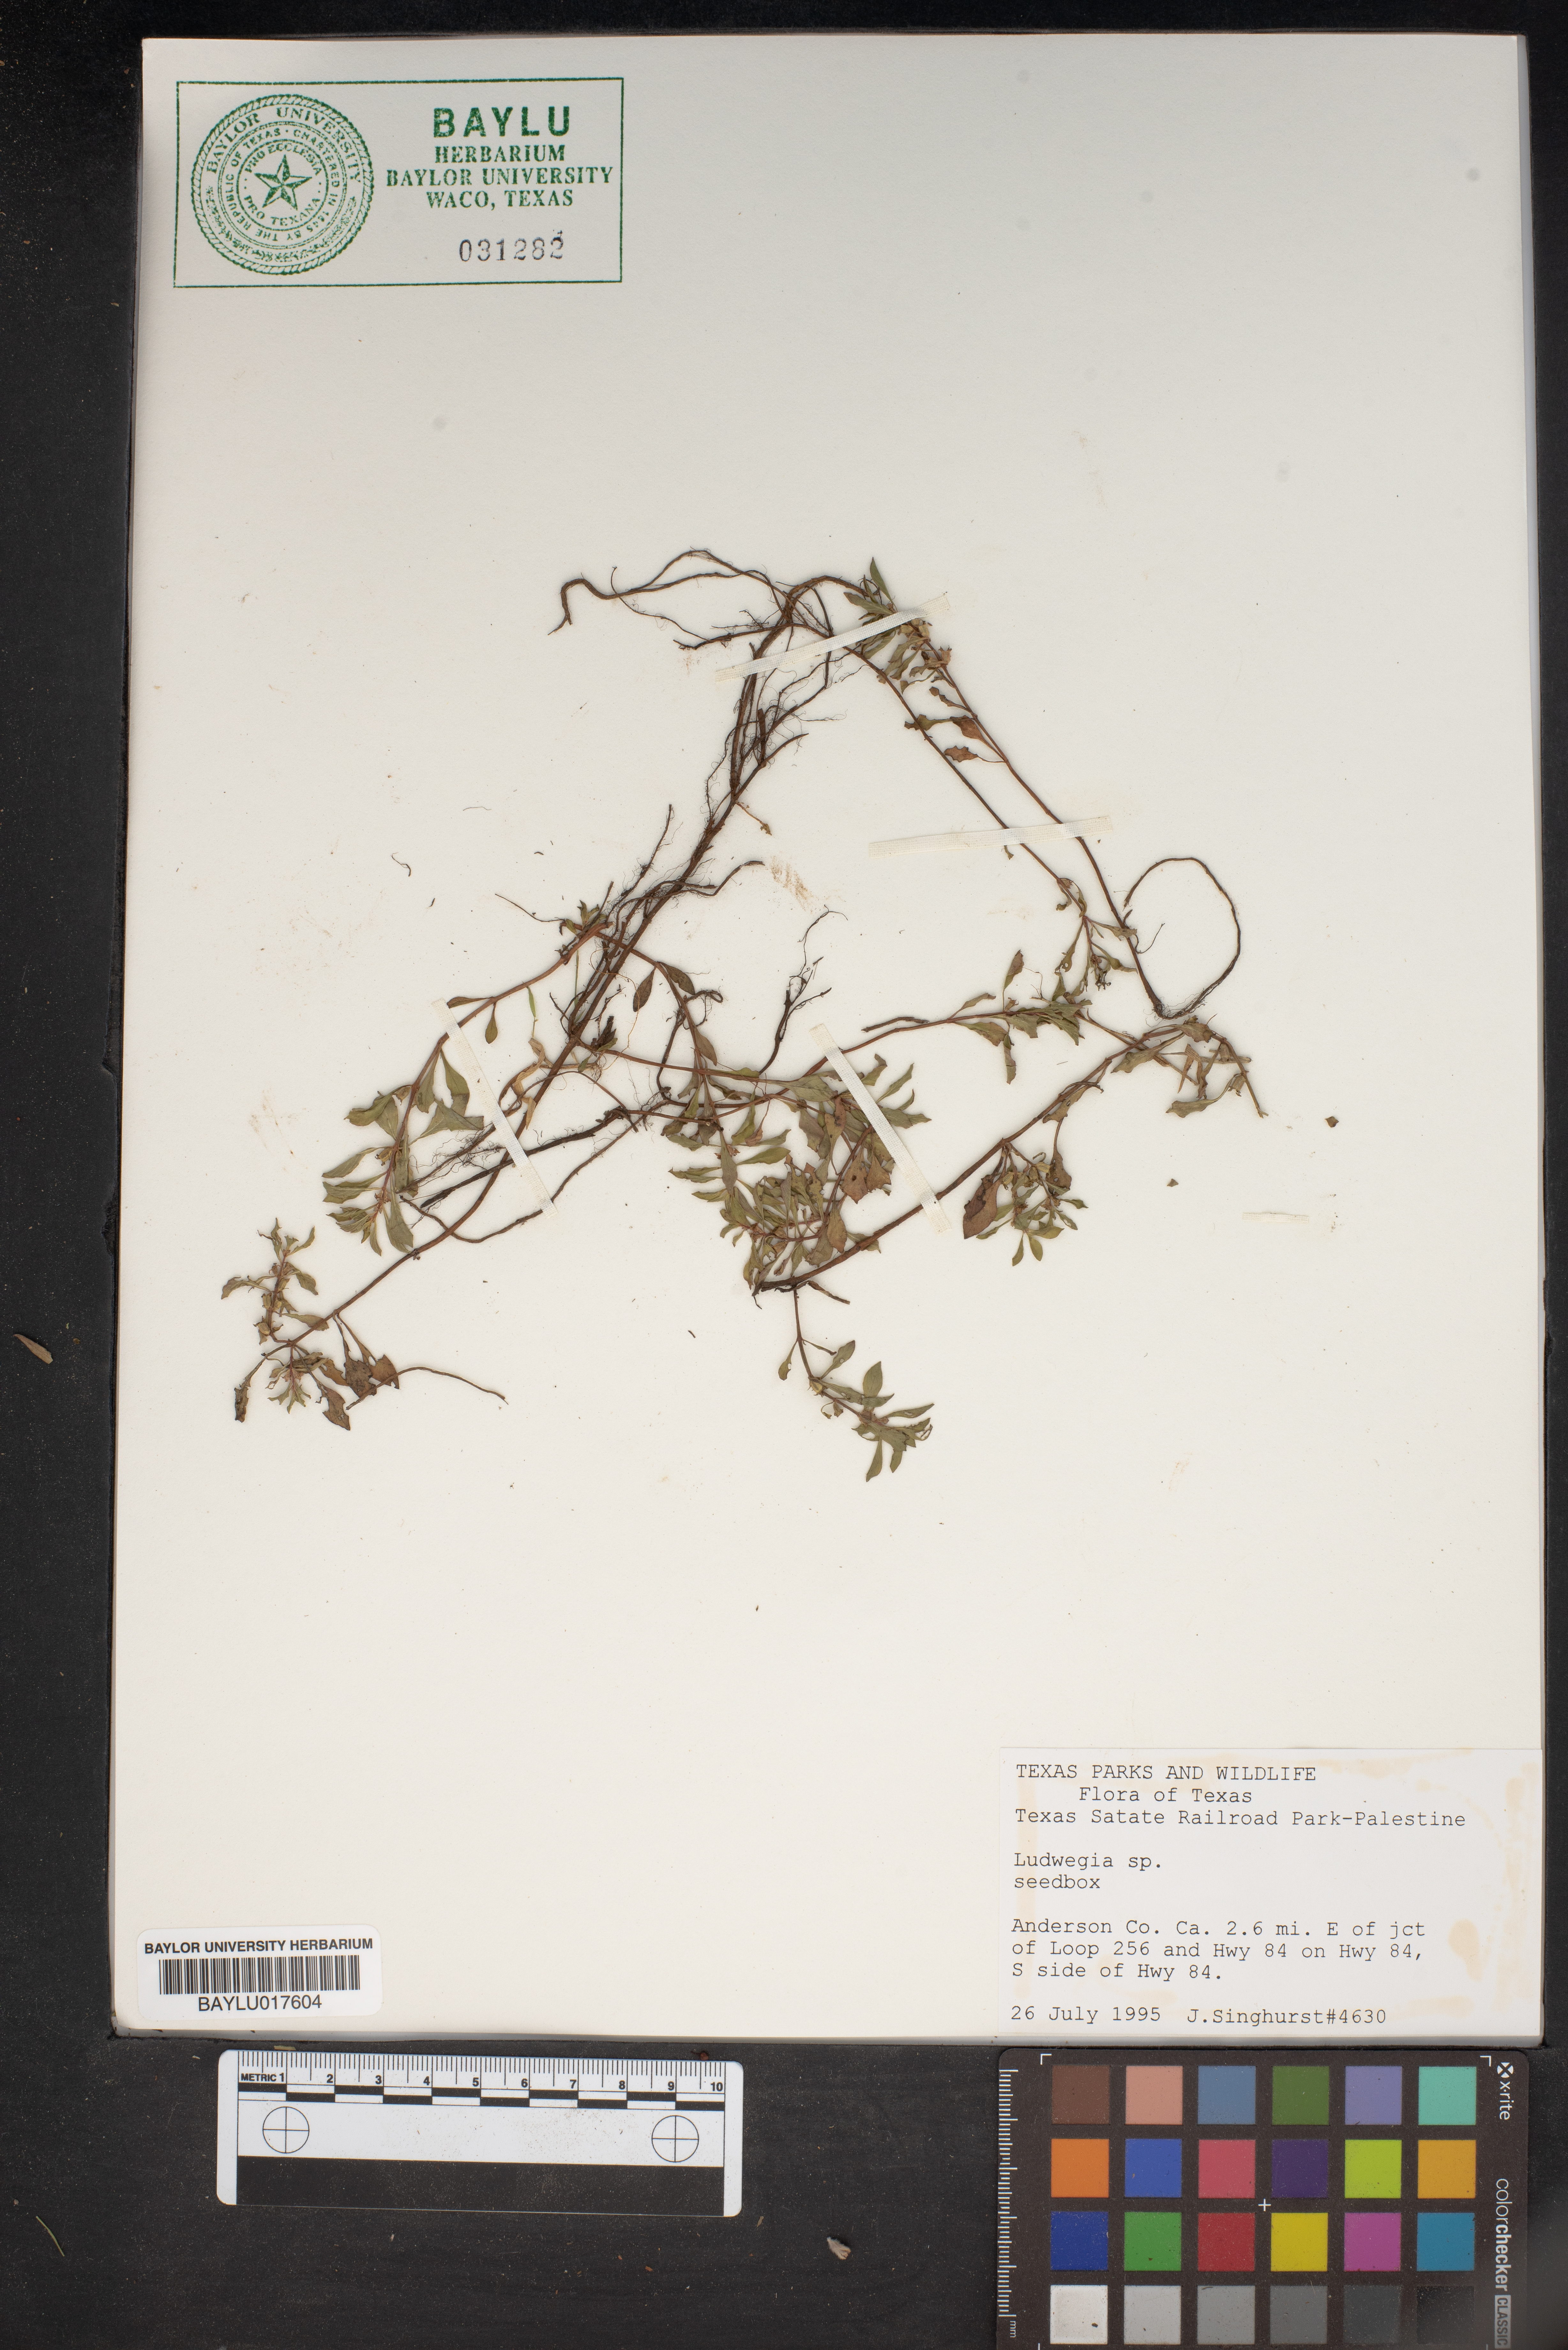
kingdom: Plantae
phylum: Tracheophyta
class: Magnoliopsida
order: Myrtales
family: Onagraceae
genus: Ludwigia
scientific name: Ludwigia
